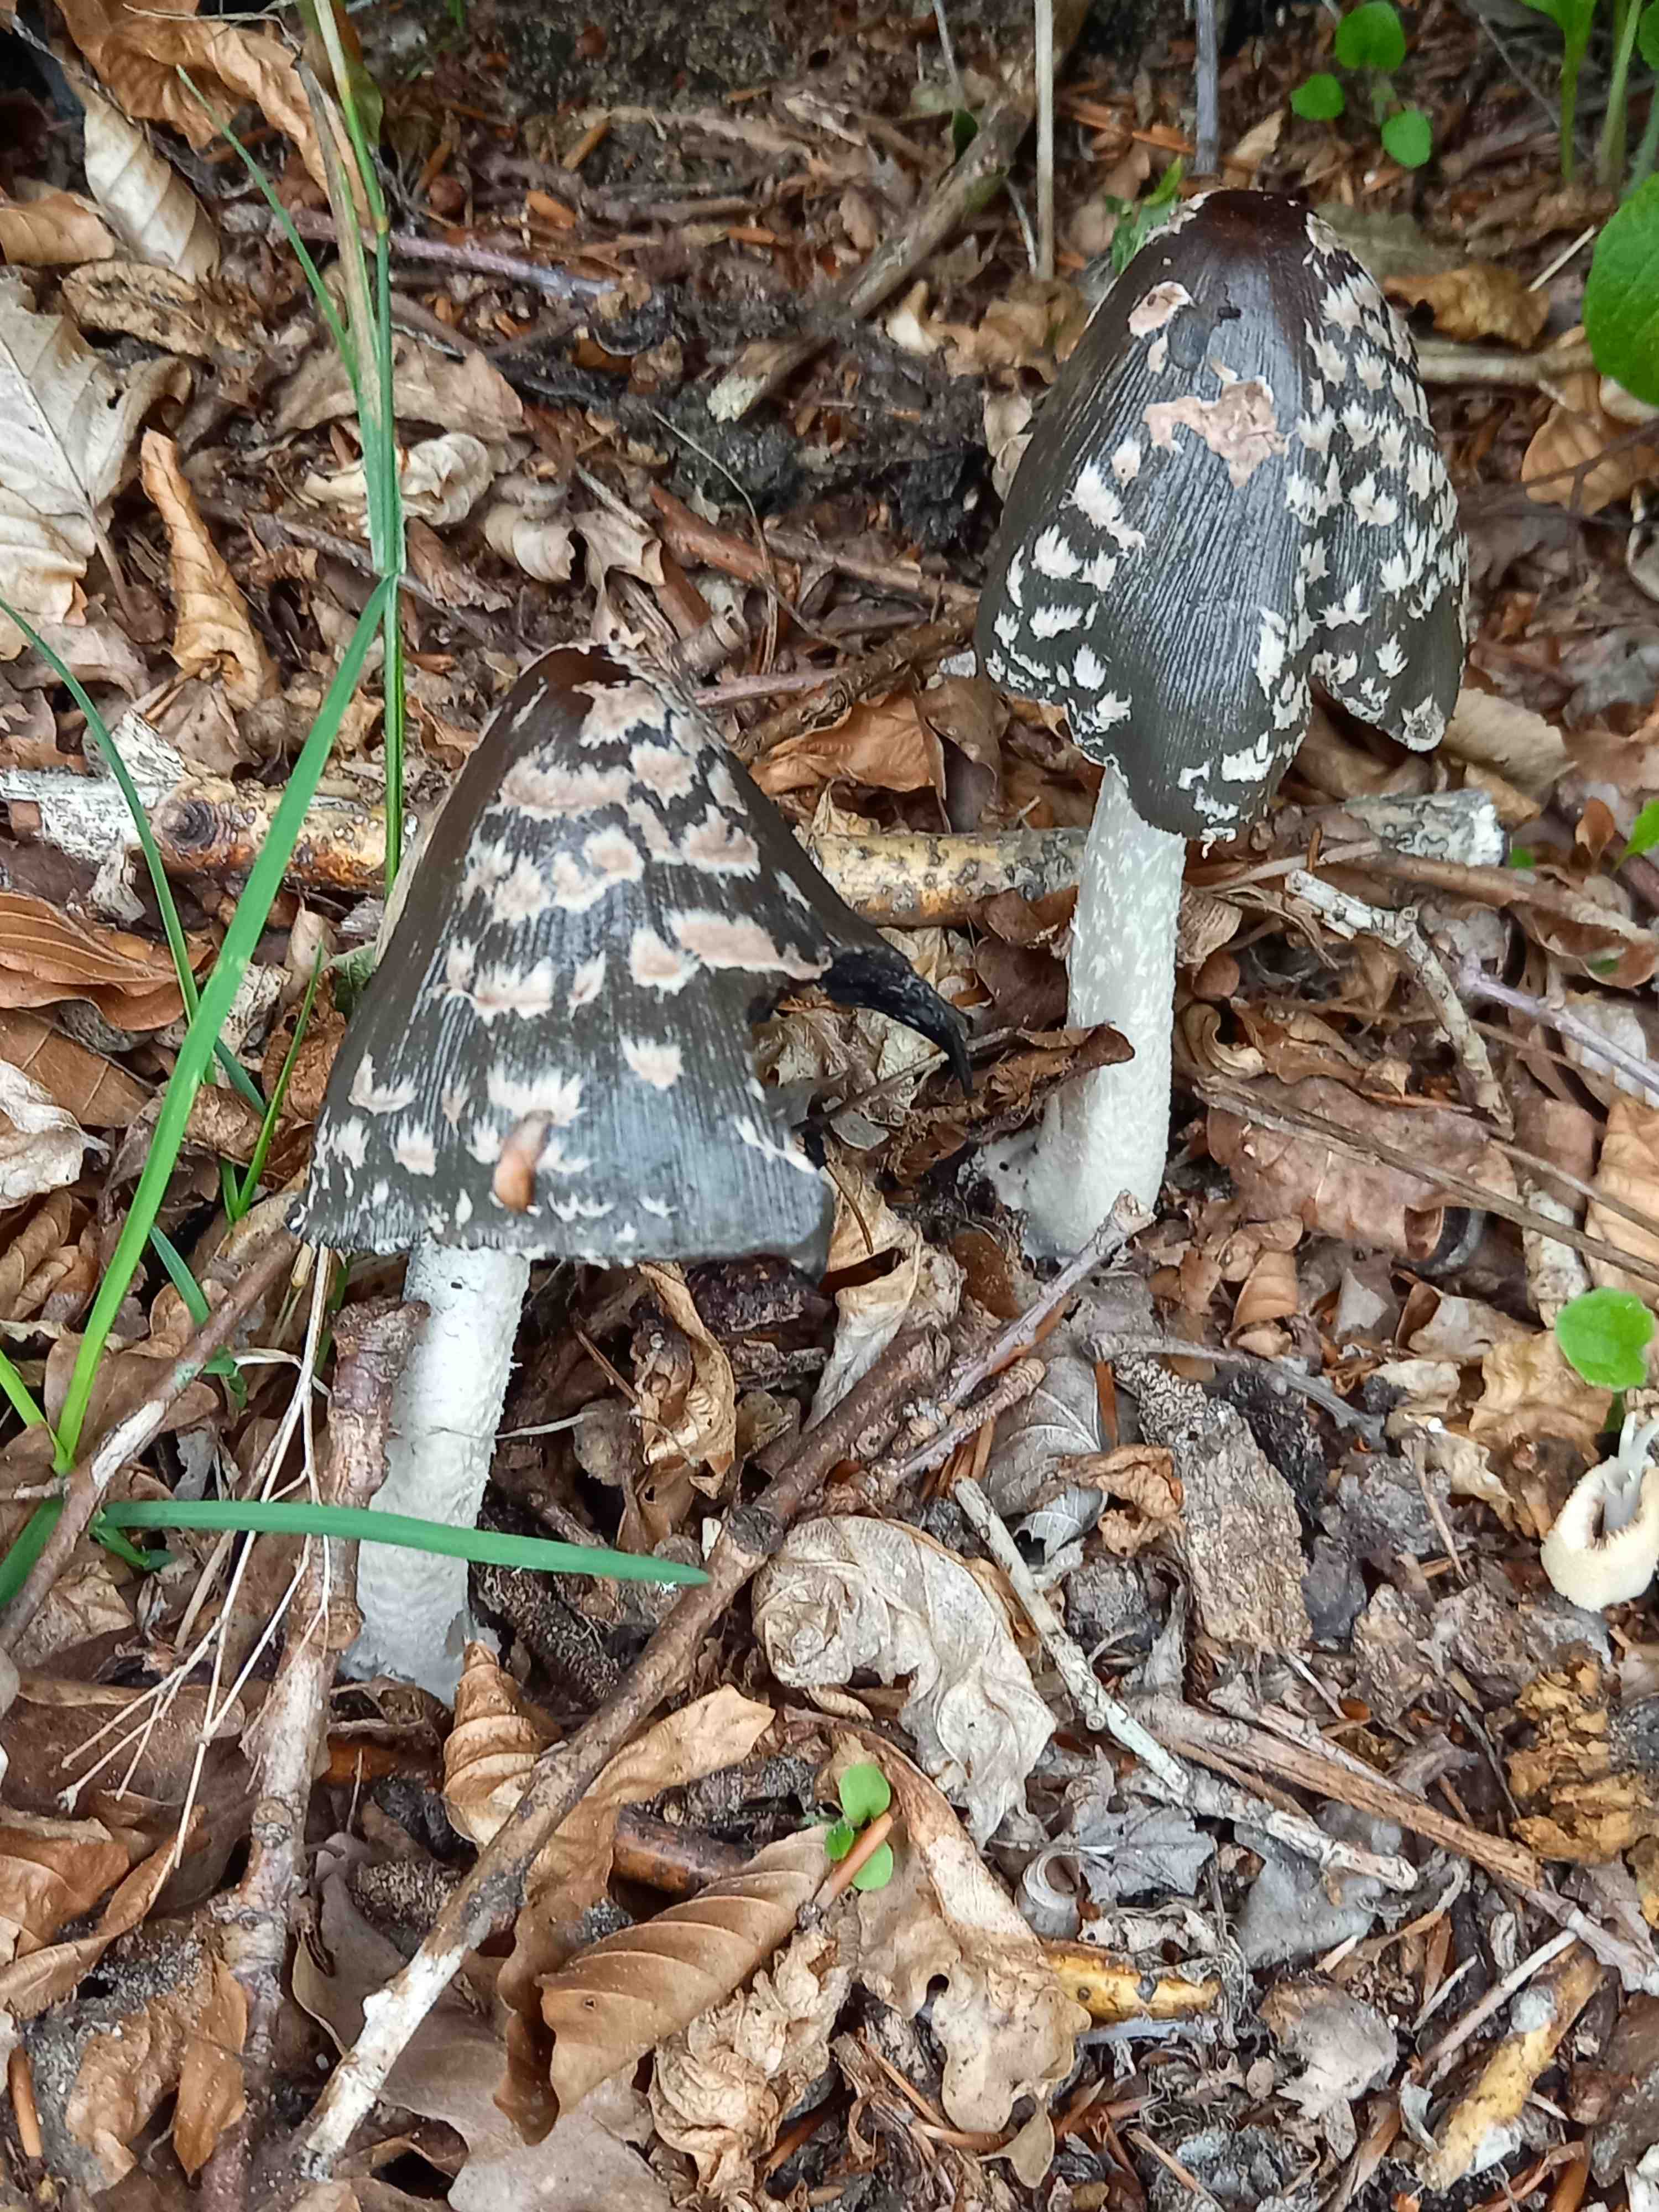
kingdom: Fungi
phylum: Basidiomycota
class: Agaricomycetes
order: Agaricales
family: Psathyrellaceae
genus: Coprinopsis
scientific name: Coprinopsis picacea
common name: skade-blækhat
